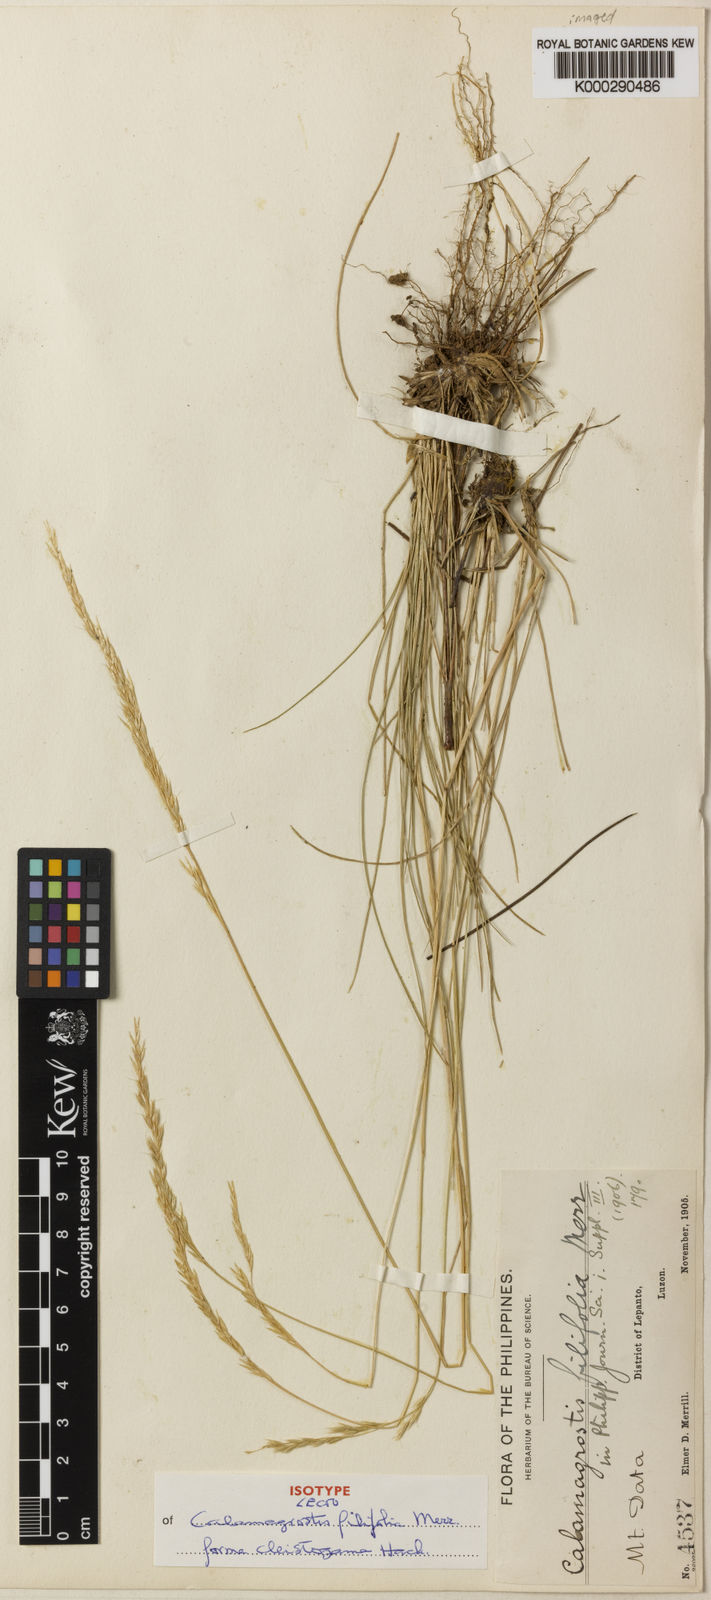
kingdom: Plantae
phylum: Tracheophyta
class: Liliopsida
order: Poales
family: Poaceae
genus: Calamagrostis
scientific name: Calamagrostis filifolia
